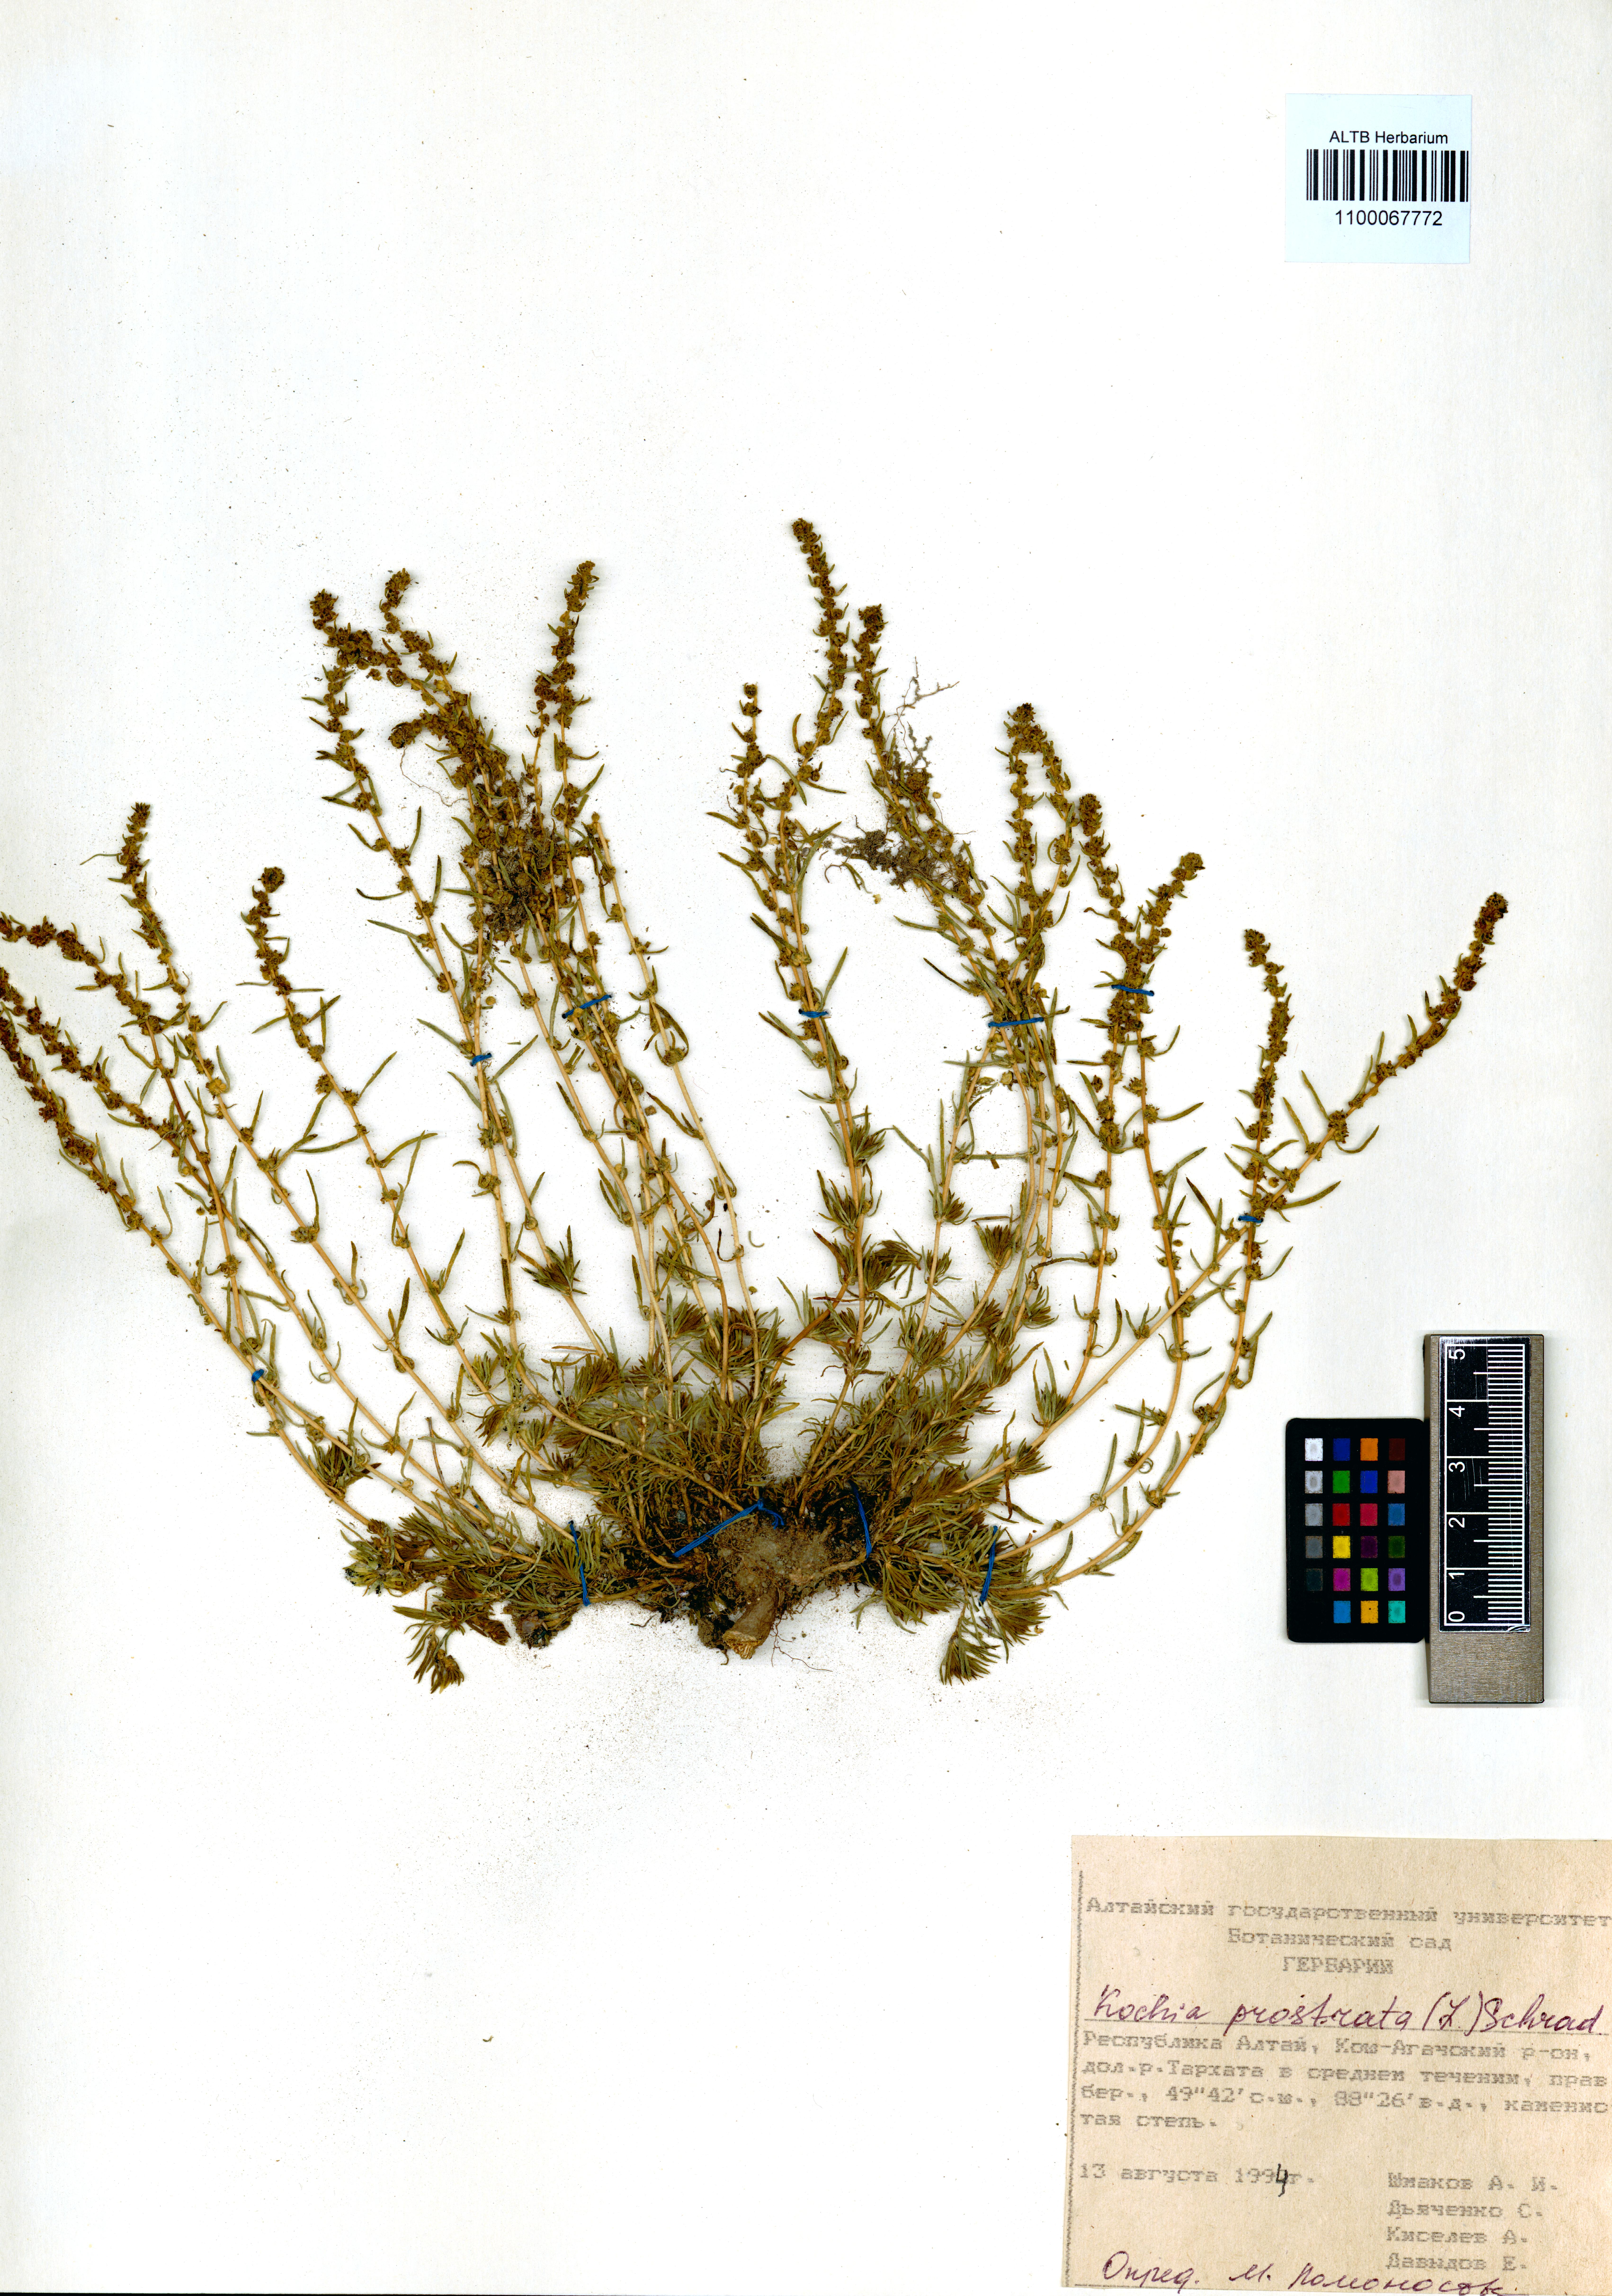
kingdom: Plantae
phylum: Tracheophyta
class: Magnoliopsida
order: Caryophyllales
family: Amaranthaceae
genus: Bassia
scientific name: Bassia prostrata
